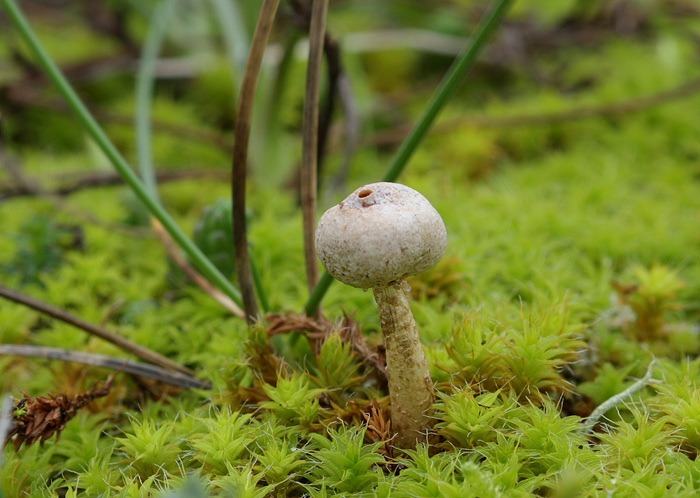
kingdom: Fungi
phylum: Basidiomycota
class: Agaricomycetes
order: Agaricales
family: Agaricaceae
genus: Tulostoma
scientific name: Tulostoma brumale
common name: vinter-stilkbovist
